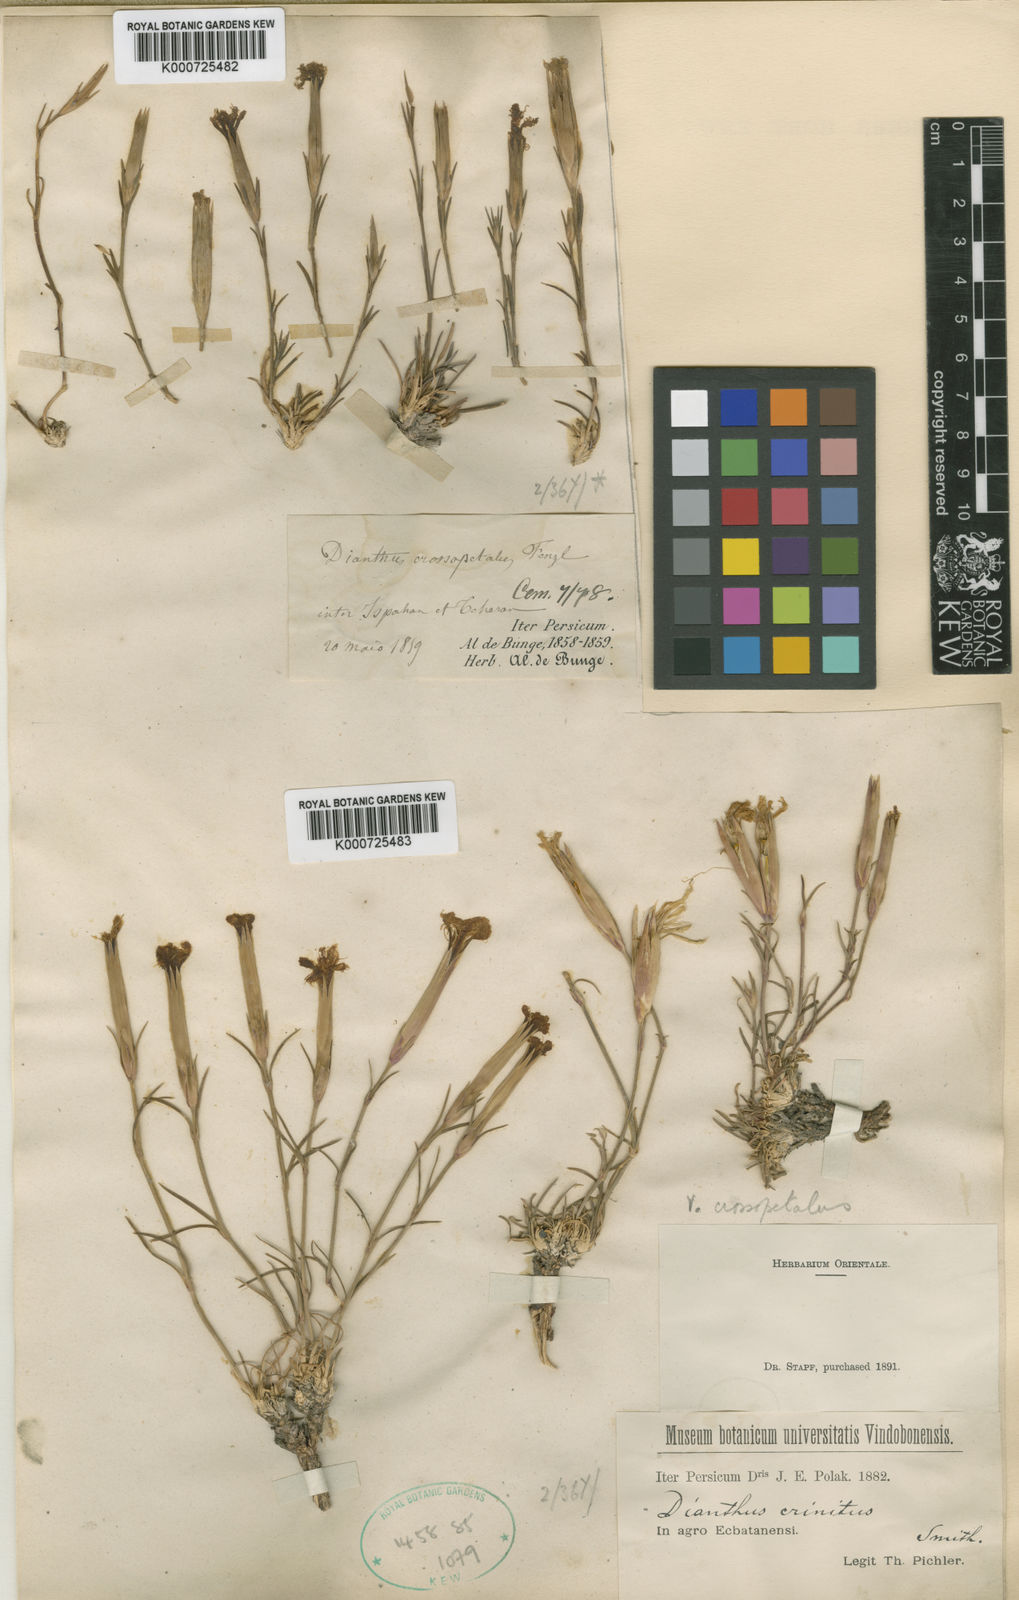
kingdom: Plantae
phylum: Tracheophyta
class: Magnoliopsida
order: Caryophyllales
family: Caryophyllaceae
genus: Dianthus
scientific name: Dianthus
